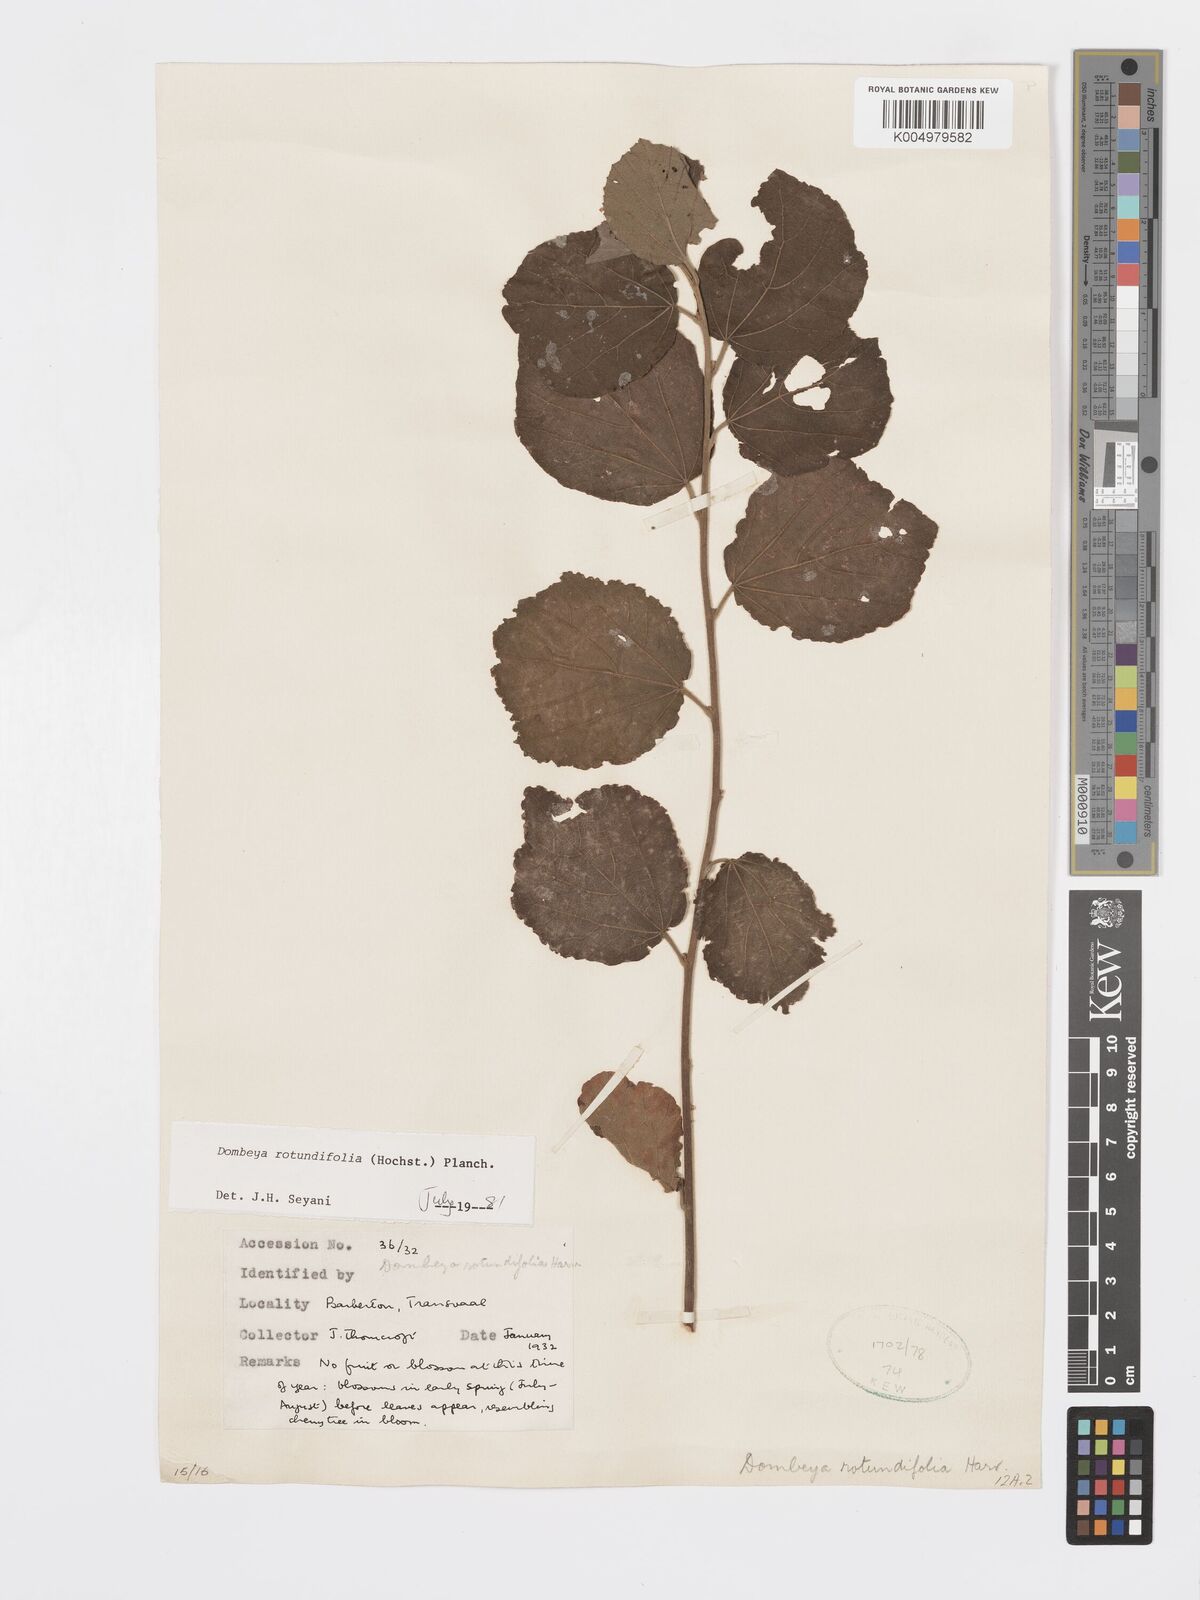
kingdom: Plantae
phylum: Tracheophyta
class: Magnoliopsida
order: Malvales
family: Malvaceae
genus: Dombeya
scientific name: Dombeya rotundifolia
